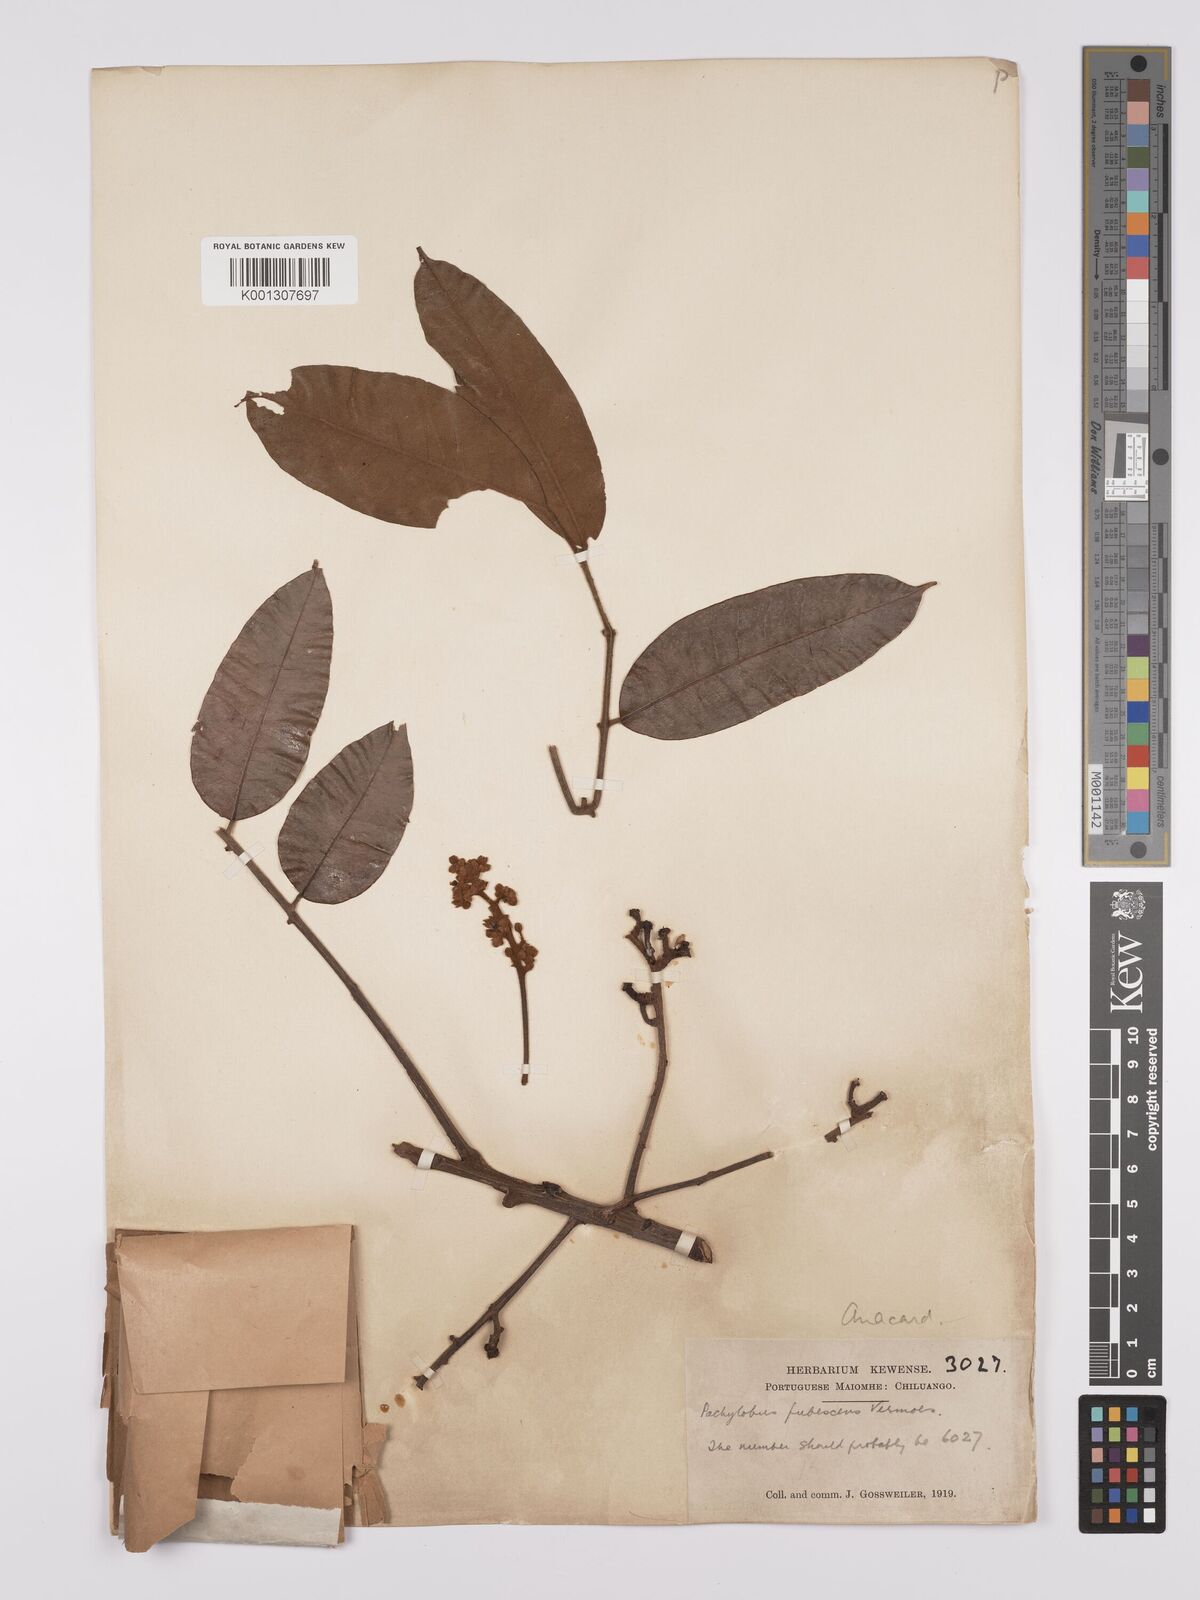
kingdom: Plantae
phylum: Tracheophyta
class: Magnoliopsida
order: Sapindales
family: Burseraceae
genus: Dacryodes
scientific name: Dacryodes
